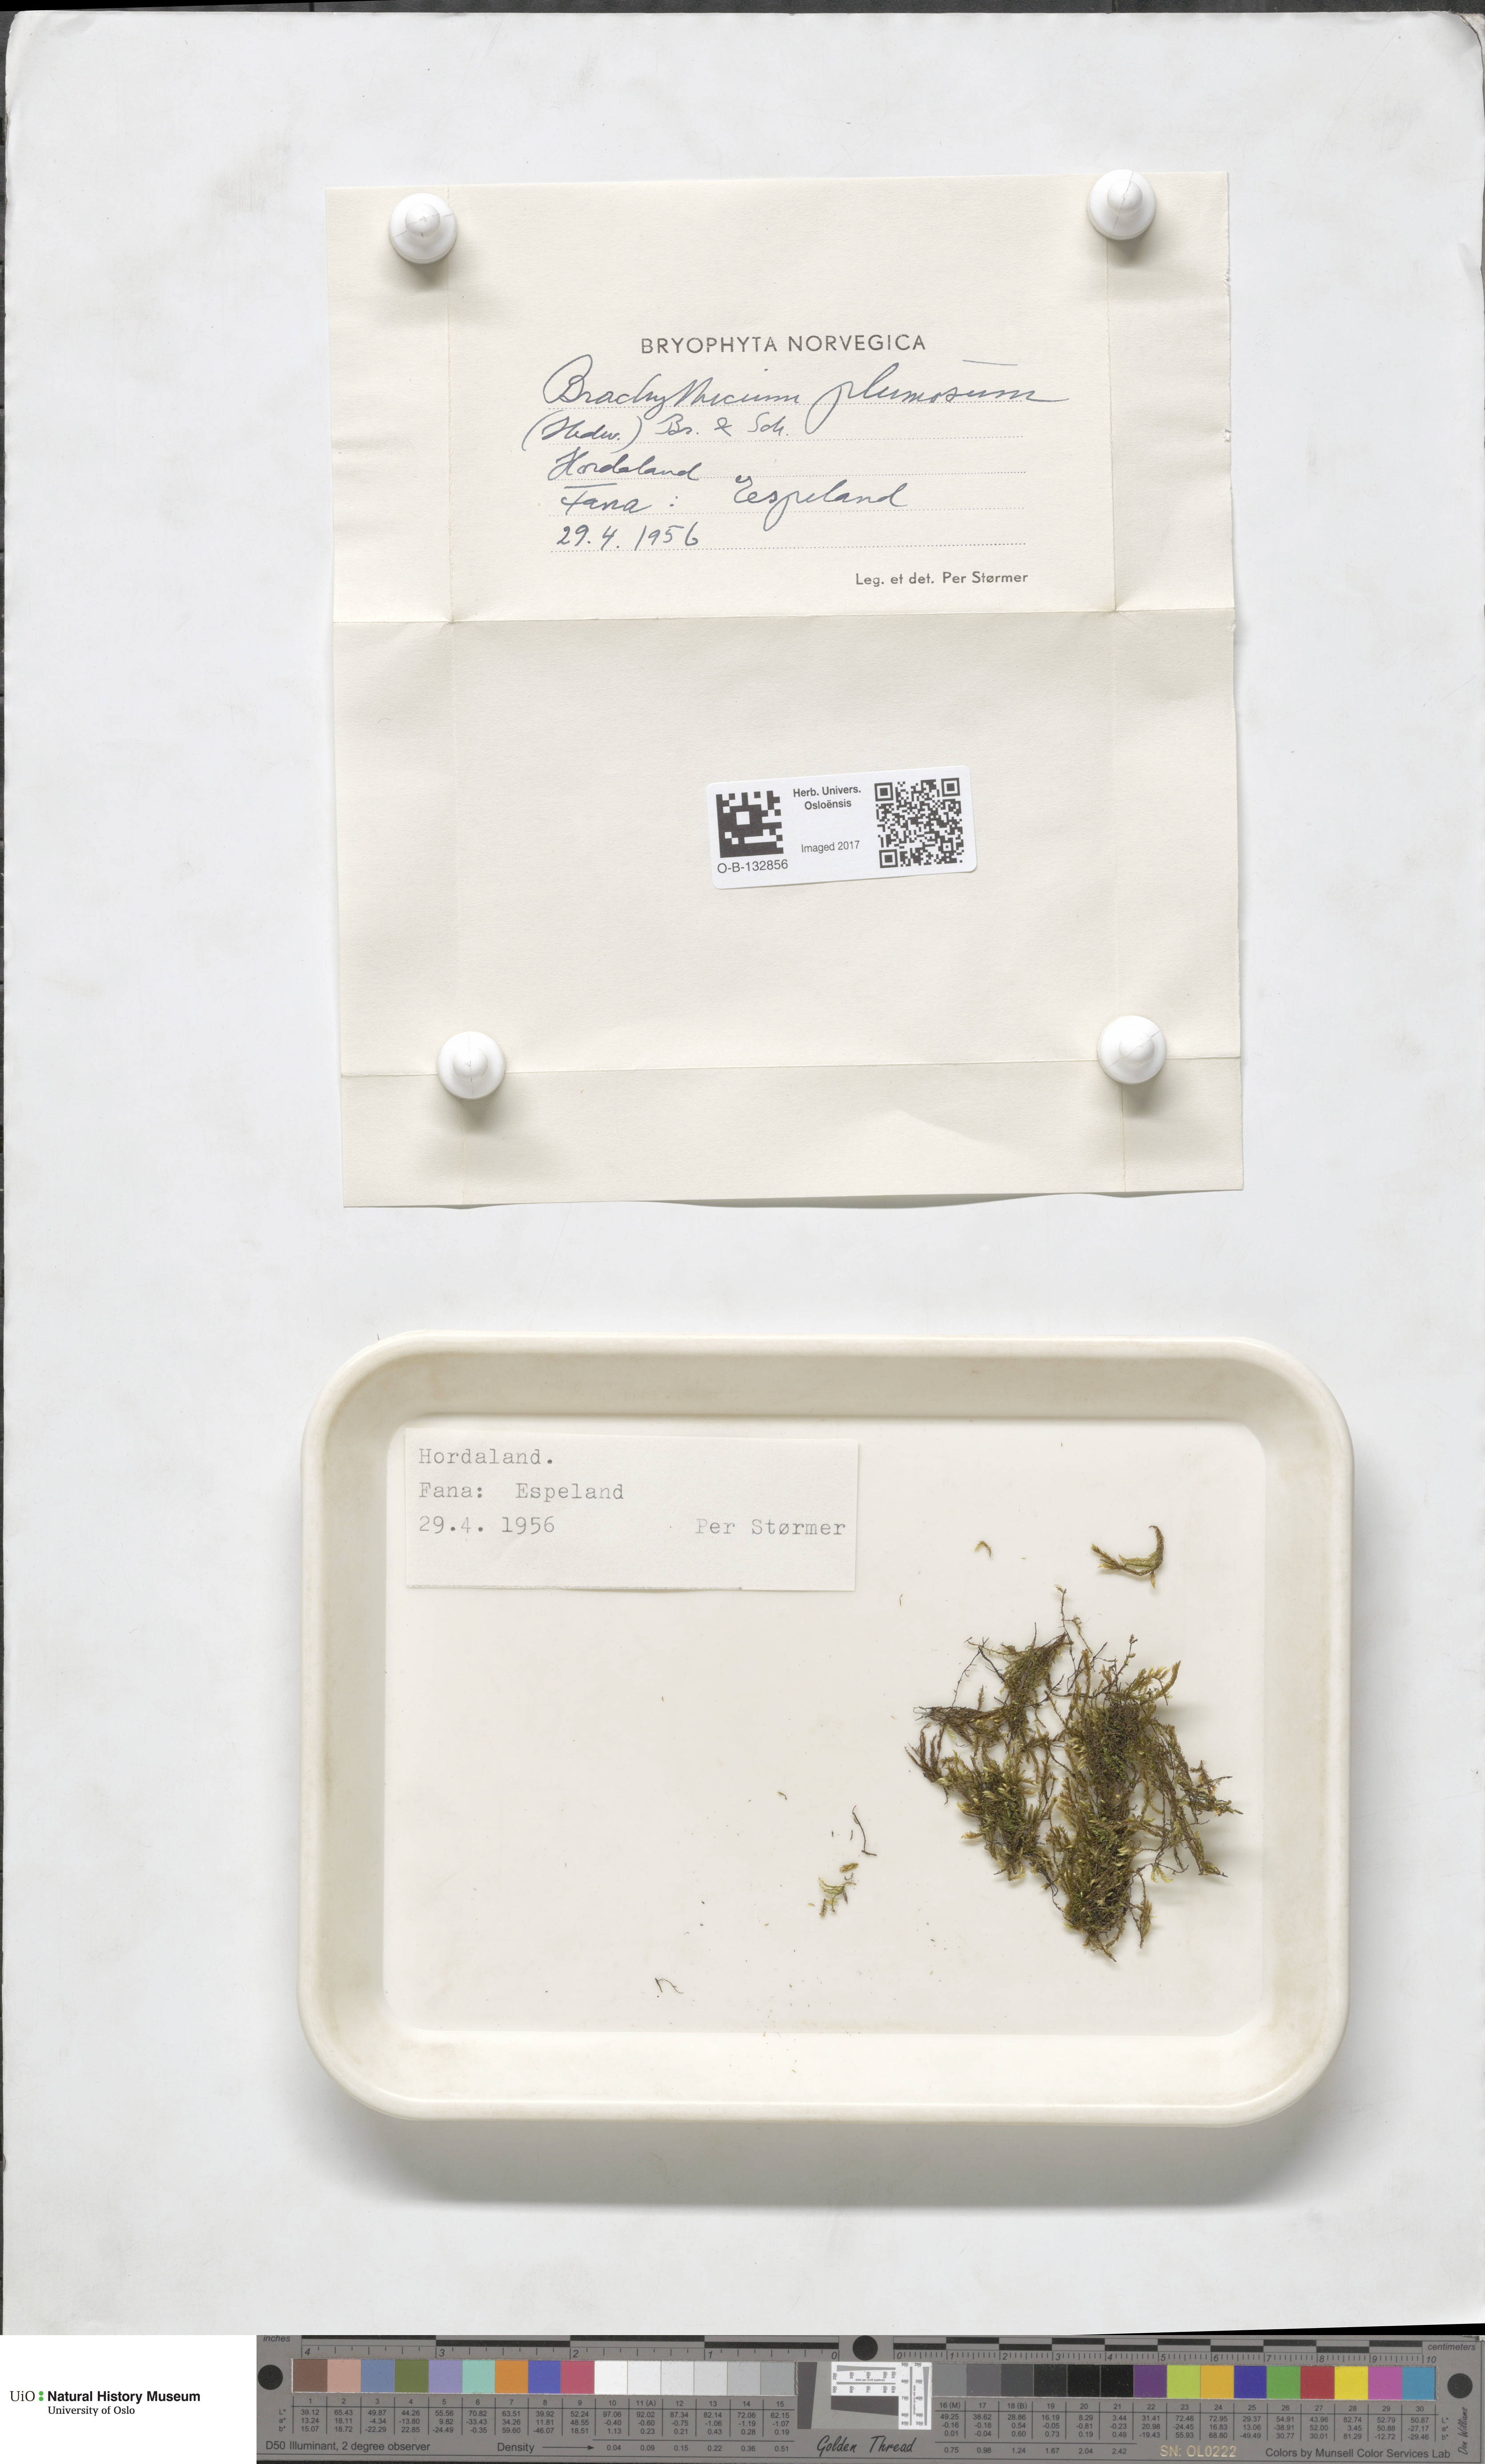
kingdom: Plantae
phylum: Bryophyta
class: Bryopsida
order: Hypnales
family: Brachytheciaceae
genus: Sciuro-hypnum
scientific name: Sciuro-hypnum plumosum
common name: Rusty feather-moss
